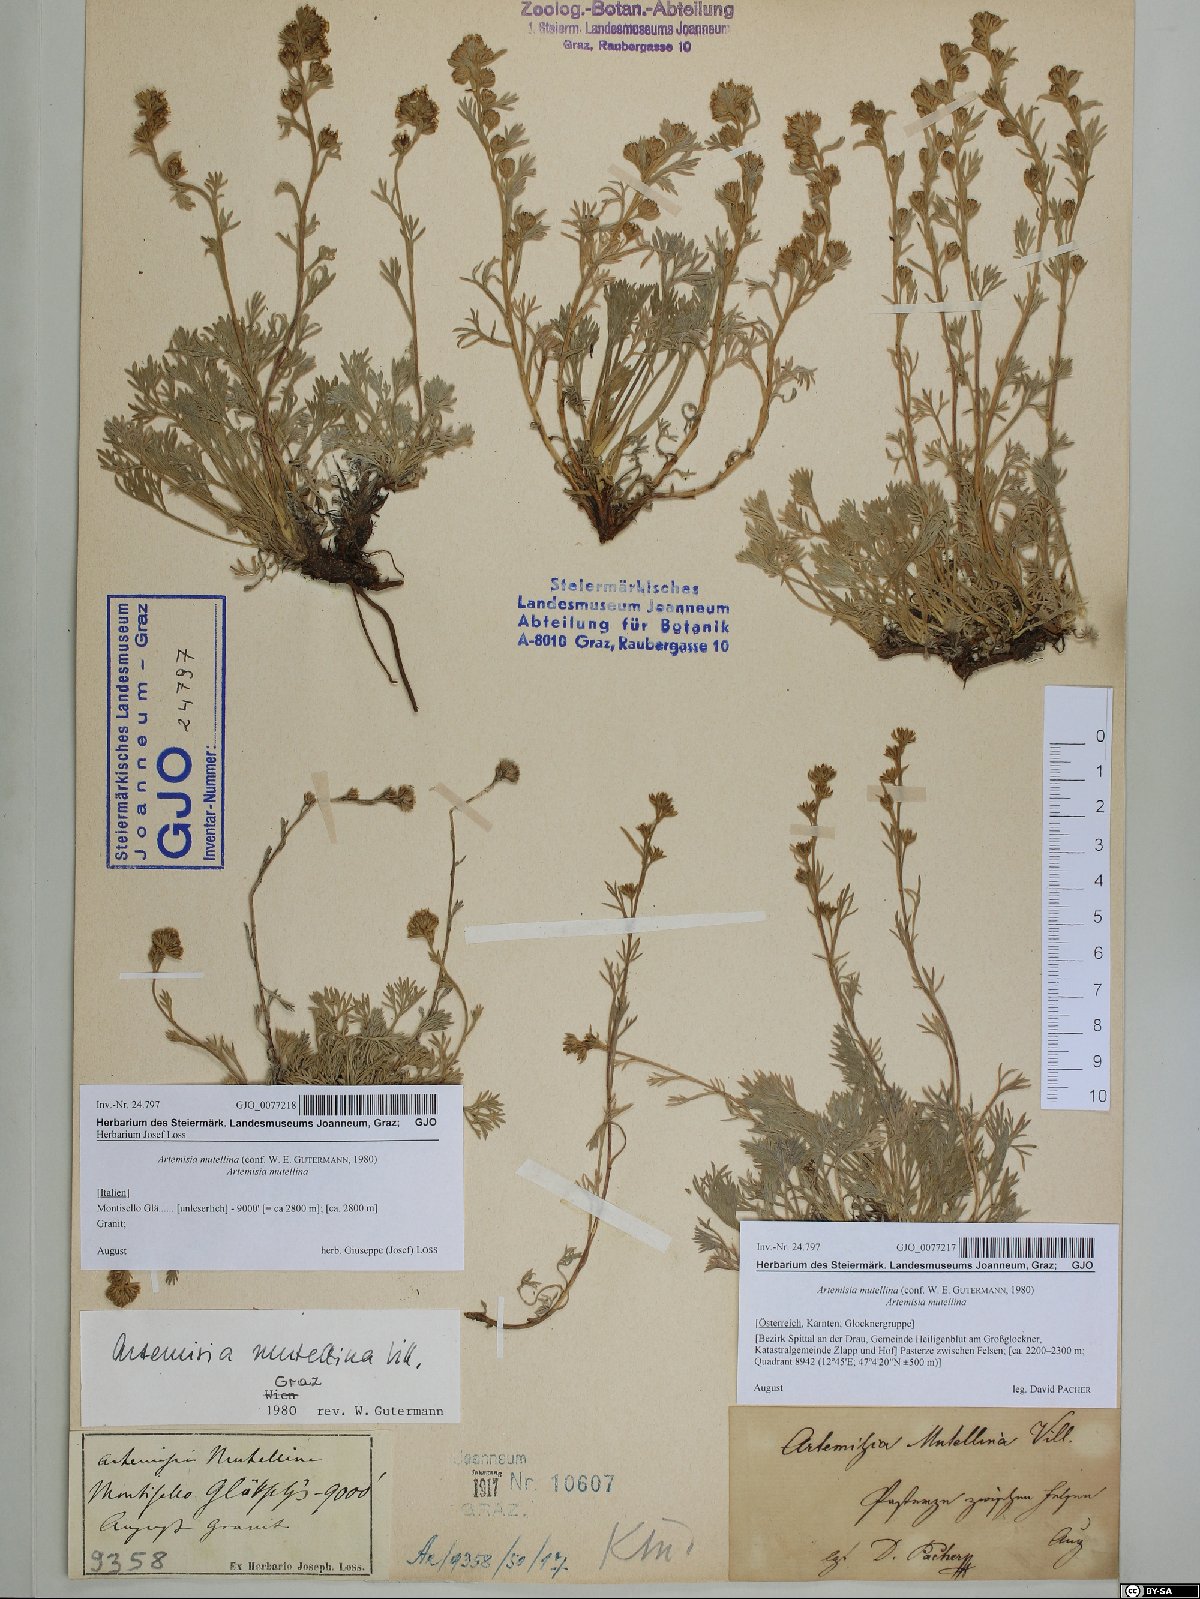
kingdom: Plantae
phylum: Tracheophyta
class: Magnoliopsida
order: Asterales
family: Asteraceae
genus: Artemisia
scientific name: Artemisia mutellina
